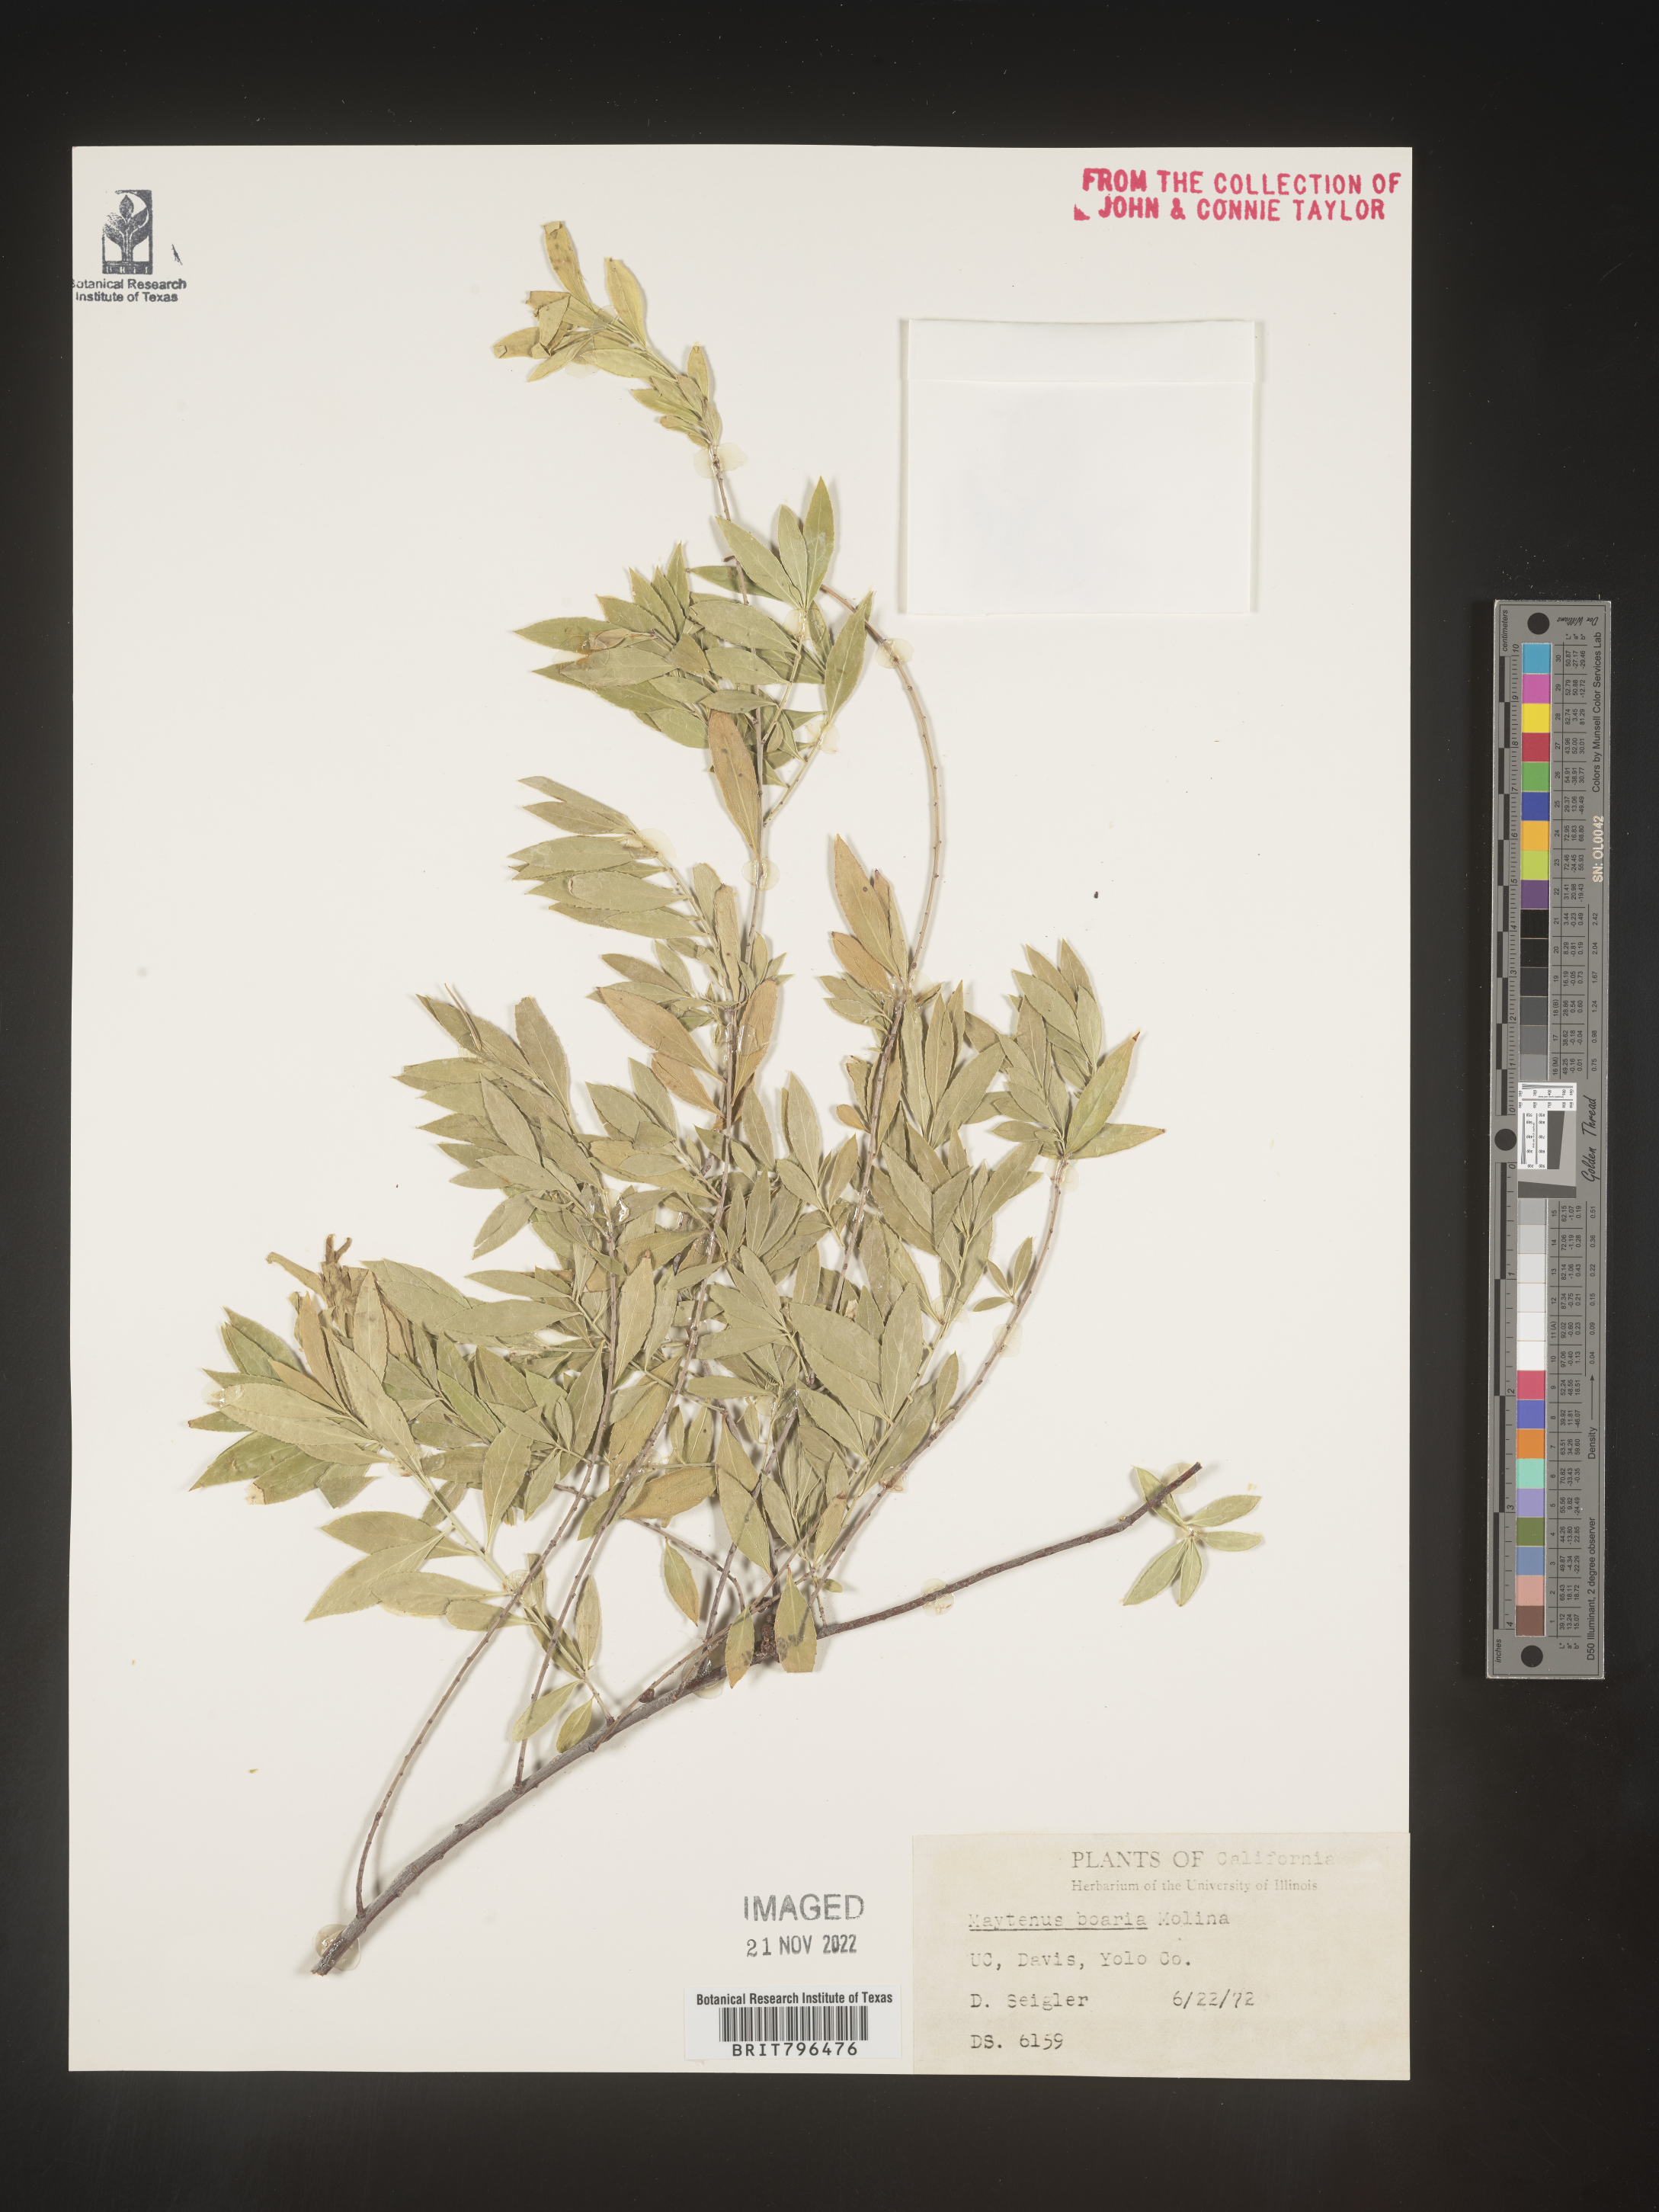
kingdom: Plantae
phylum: Tracheophyta
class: Magnoliopsida
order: Celastrales
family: Celastraceae
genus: Maytenus
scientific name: Maytenus
